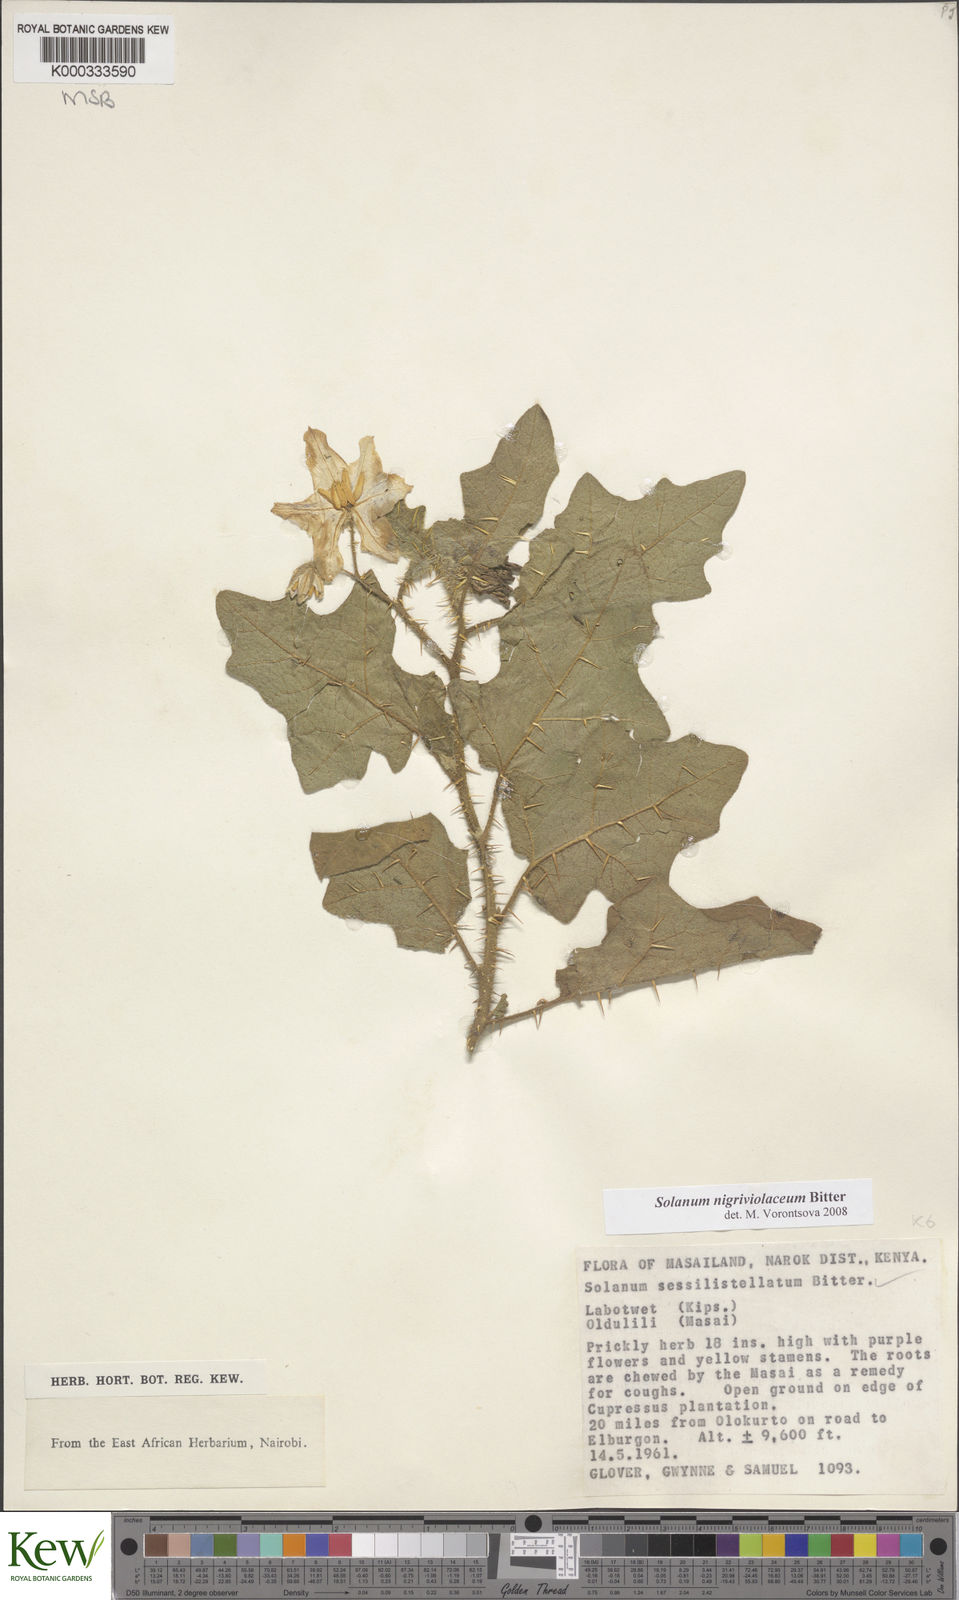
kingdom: Plantae
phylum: Tracheophyta
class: Magnoliopsida
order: Solanales
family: Solanaceae
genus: Solanum
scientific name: Solanum nigriviolaceum
